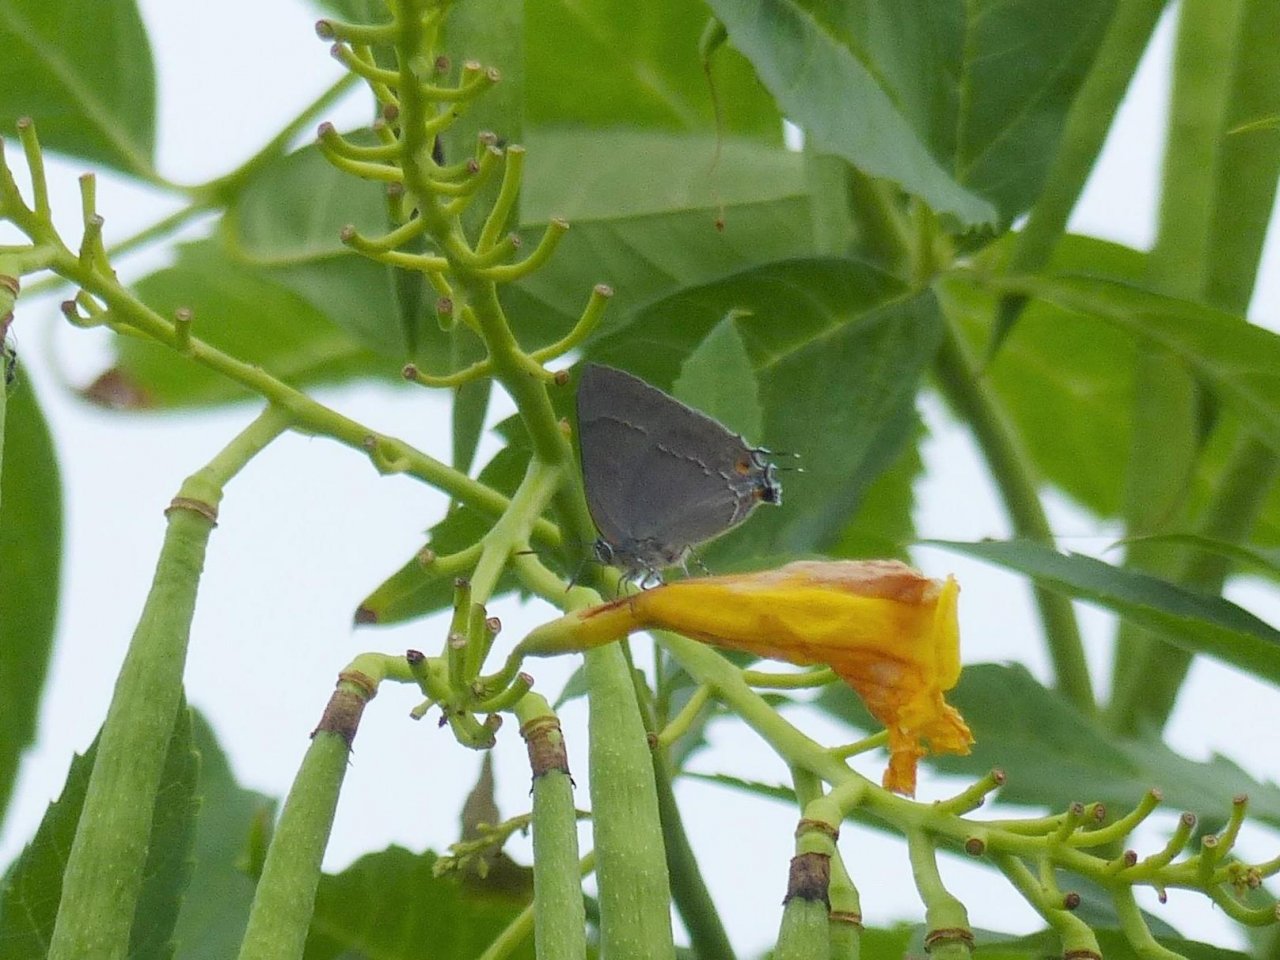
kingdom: Animalia
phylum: Arthropoda
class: Insecta
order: Lepidoptera
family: Lycaenidae
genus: Thecla
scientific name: Thecla marius
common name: Marius Hairstreak
